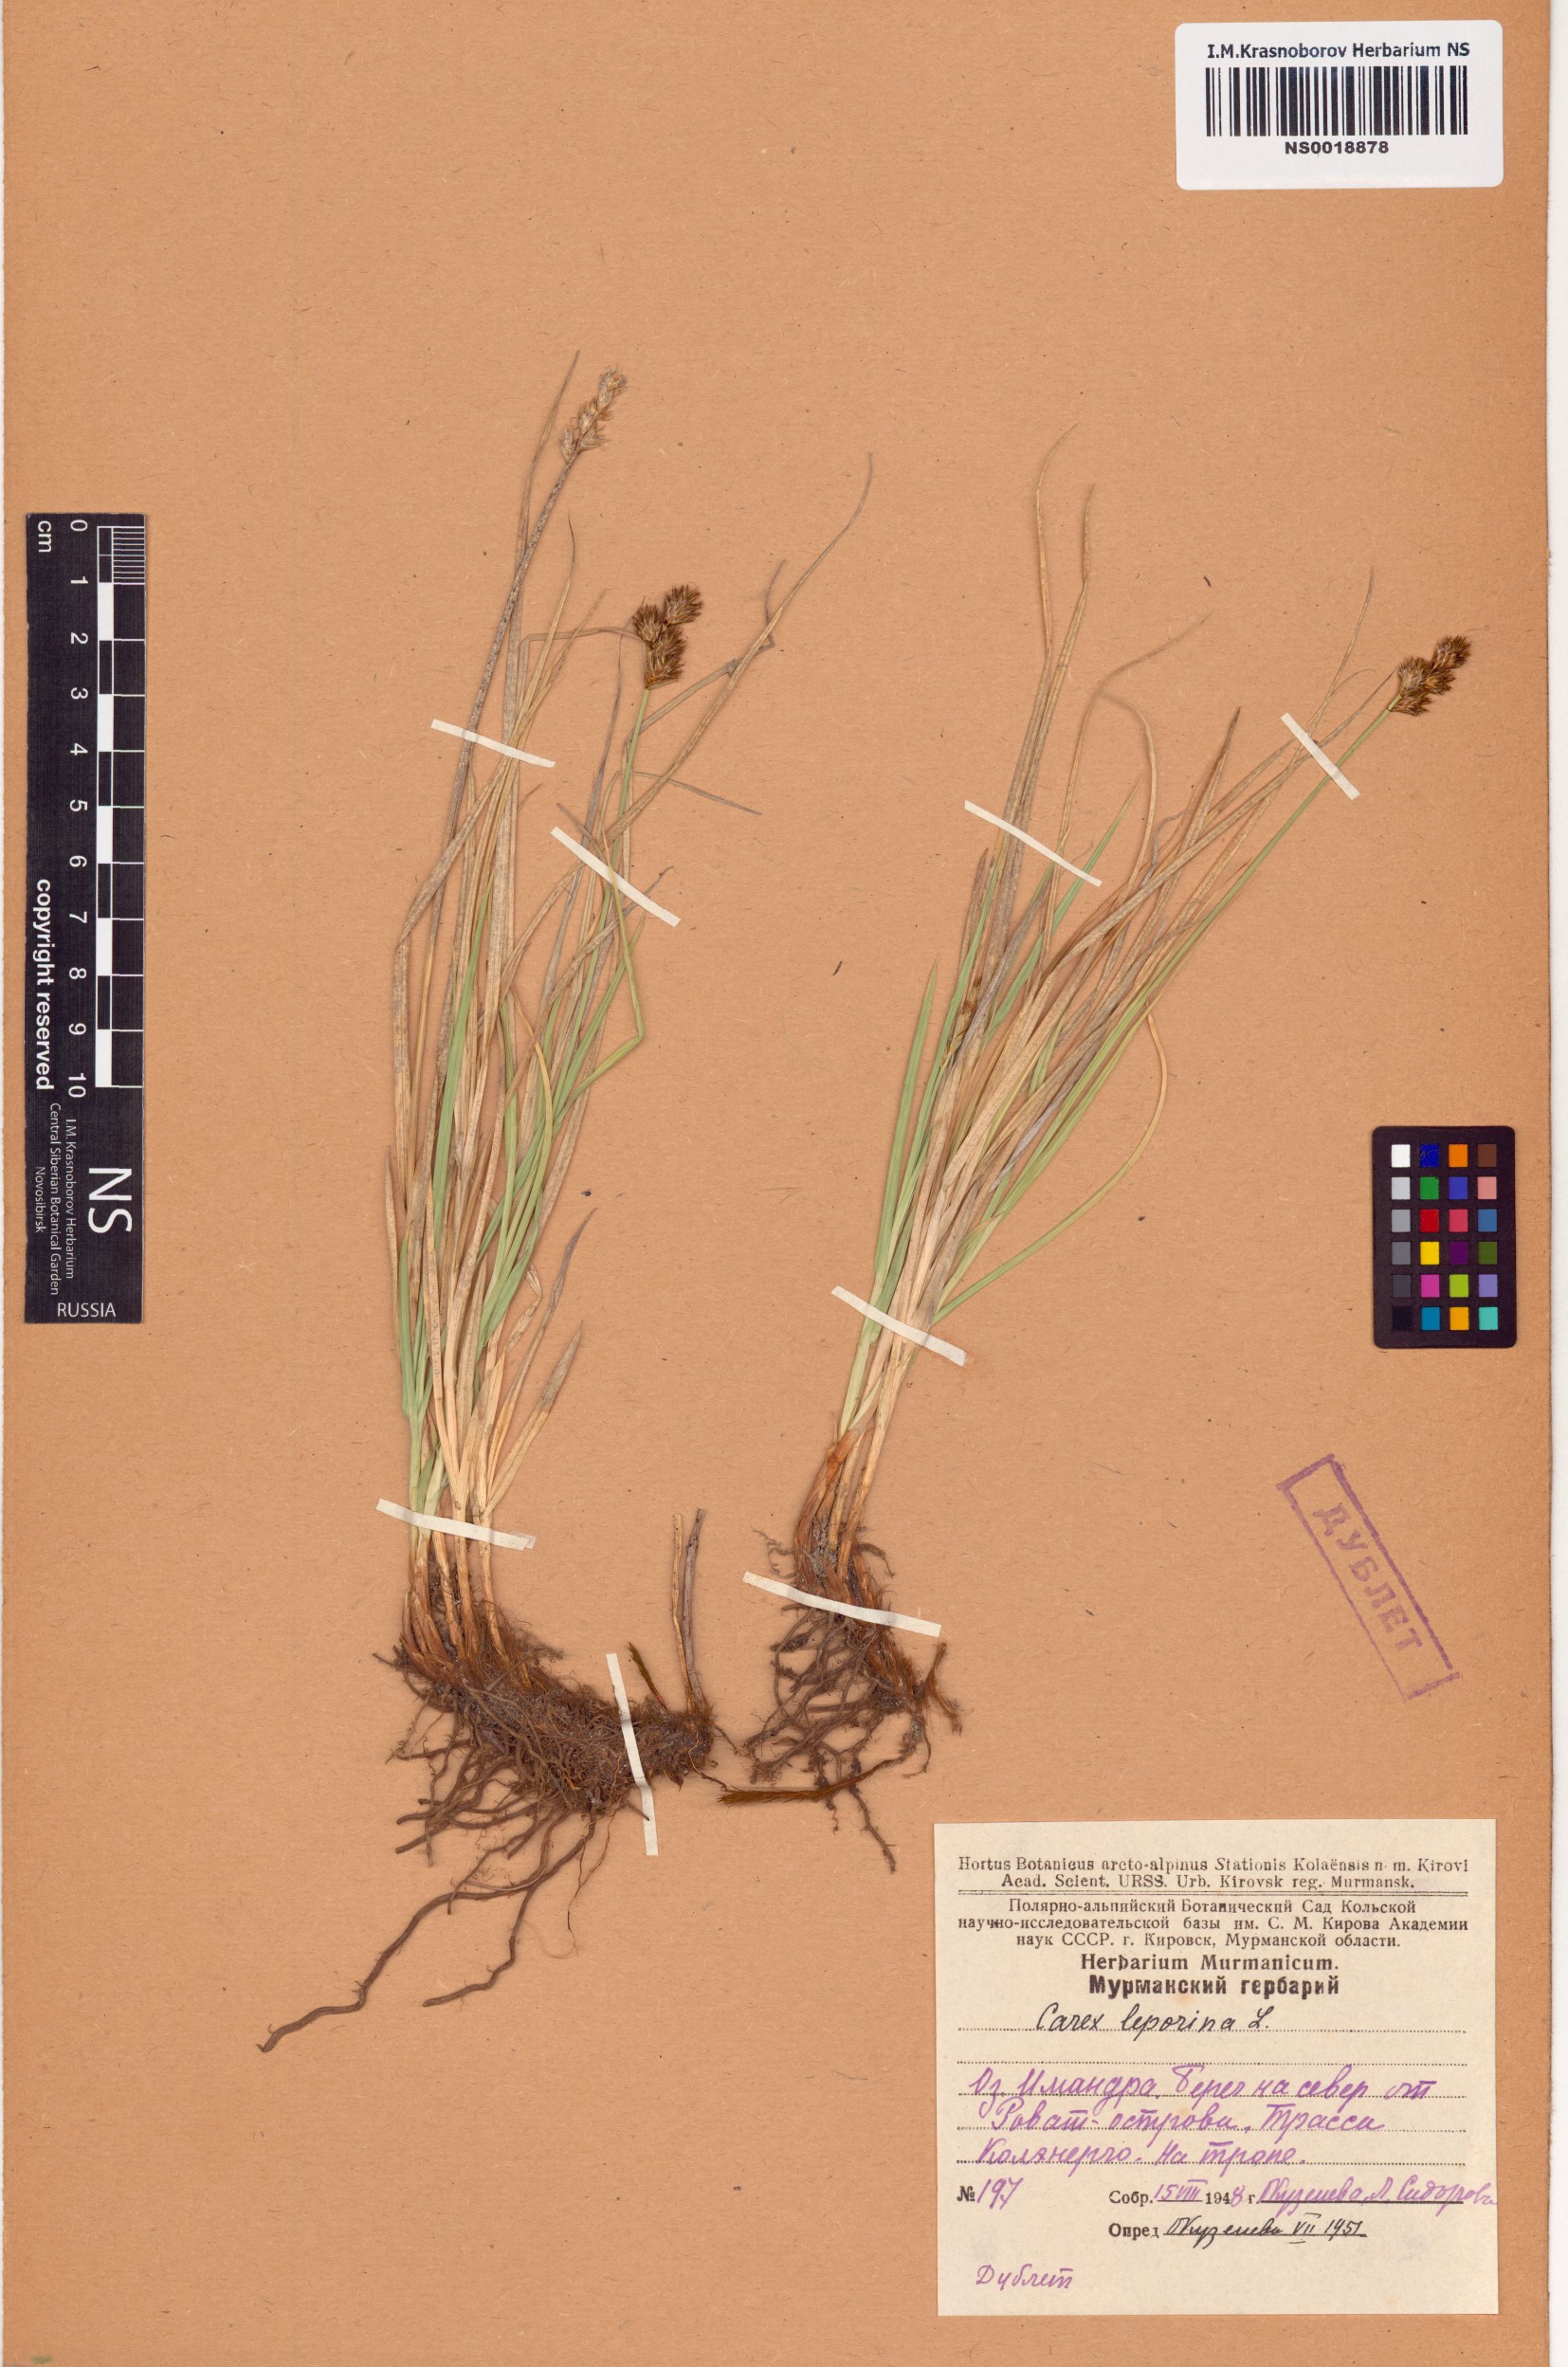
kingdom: Plantae
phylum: Tracheophyta
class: Liliopsida
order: Poales
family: Cyperaceae
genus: Carex
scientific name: Carex leporina
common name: Oval sedge
